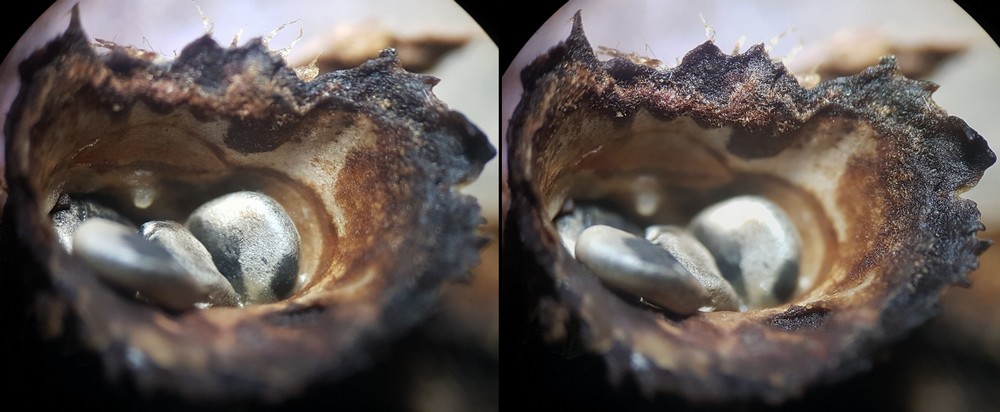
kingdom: Fungi
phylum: Basidiomycota
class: Agaricomycetes
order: Agaricales
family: Agaricaceae
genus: Cyathus
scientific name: Cyathus
